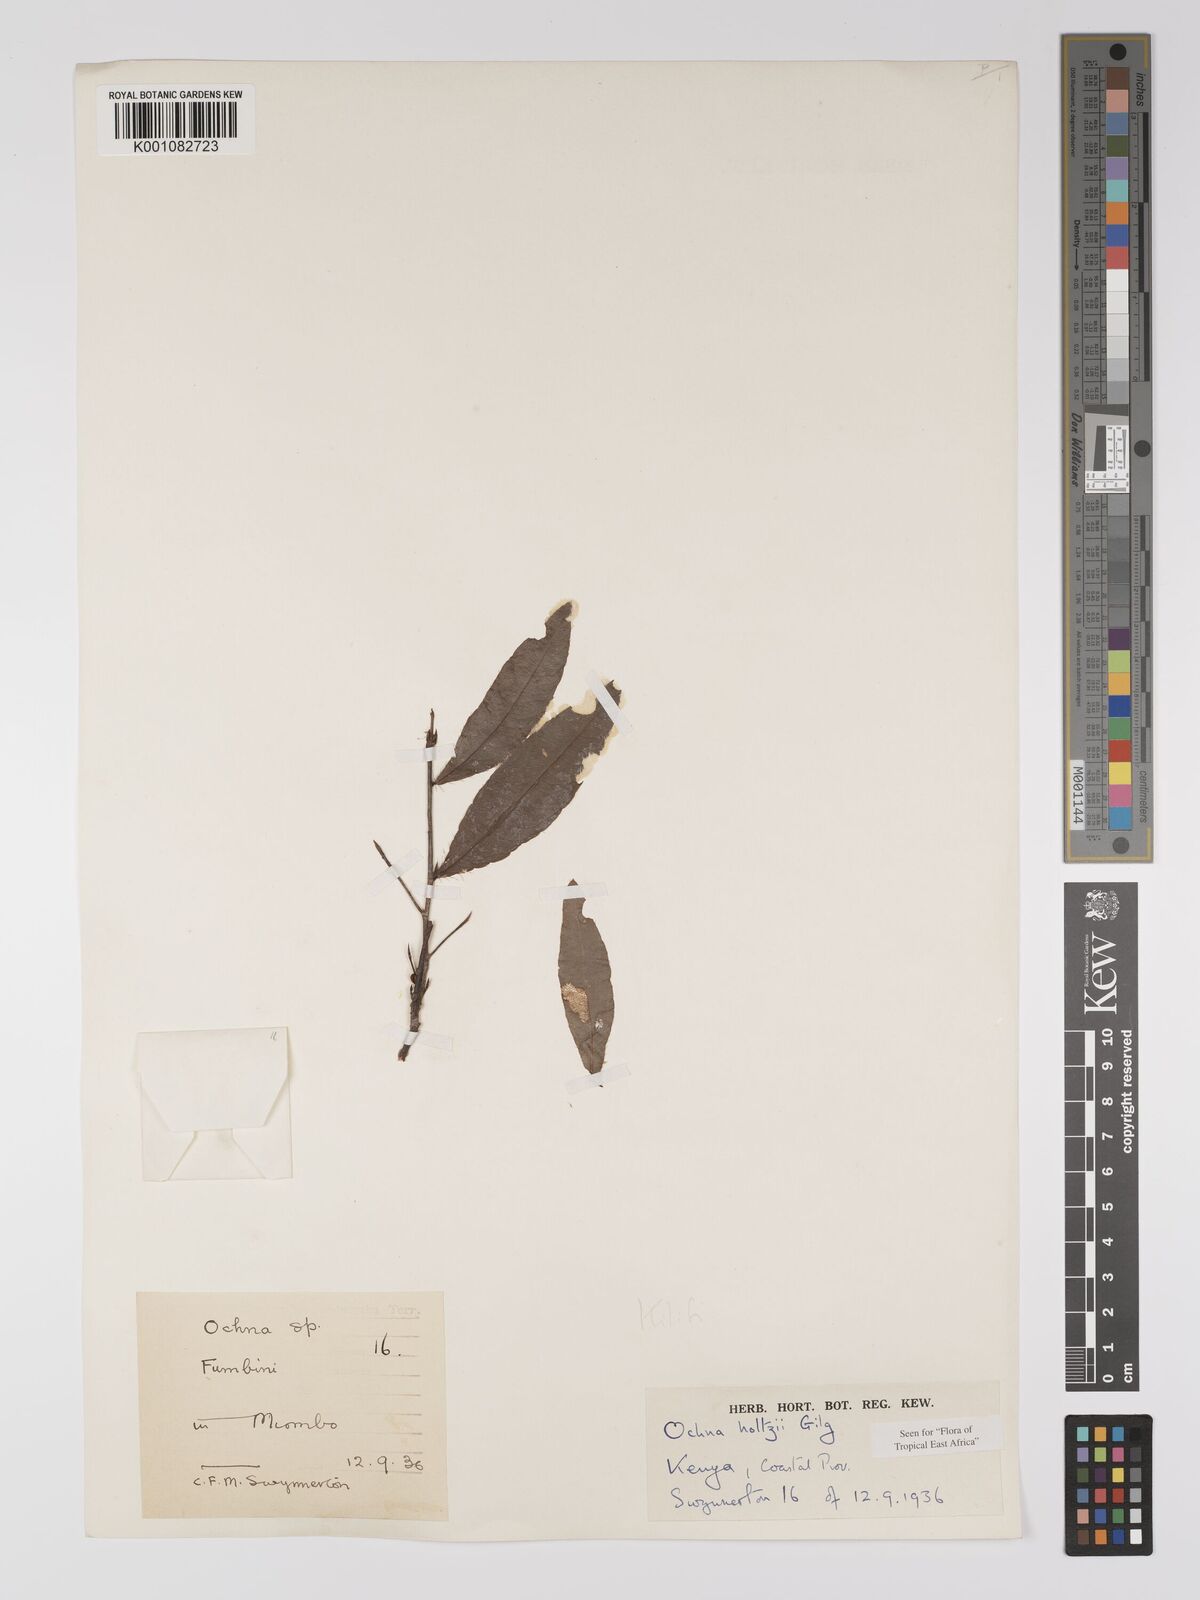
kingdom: Plantae
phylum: Tracheophyta
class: Magnoliopsida
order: Malpighiales
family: Ochnaceae
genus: Ochna
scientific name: Ochna holtzii
